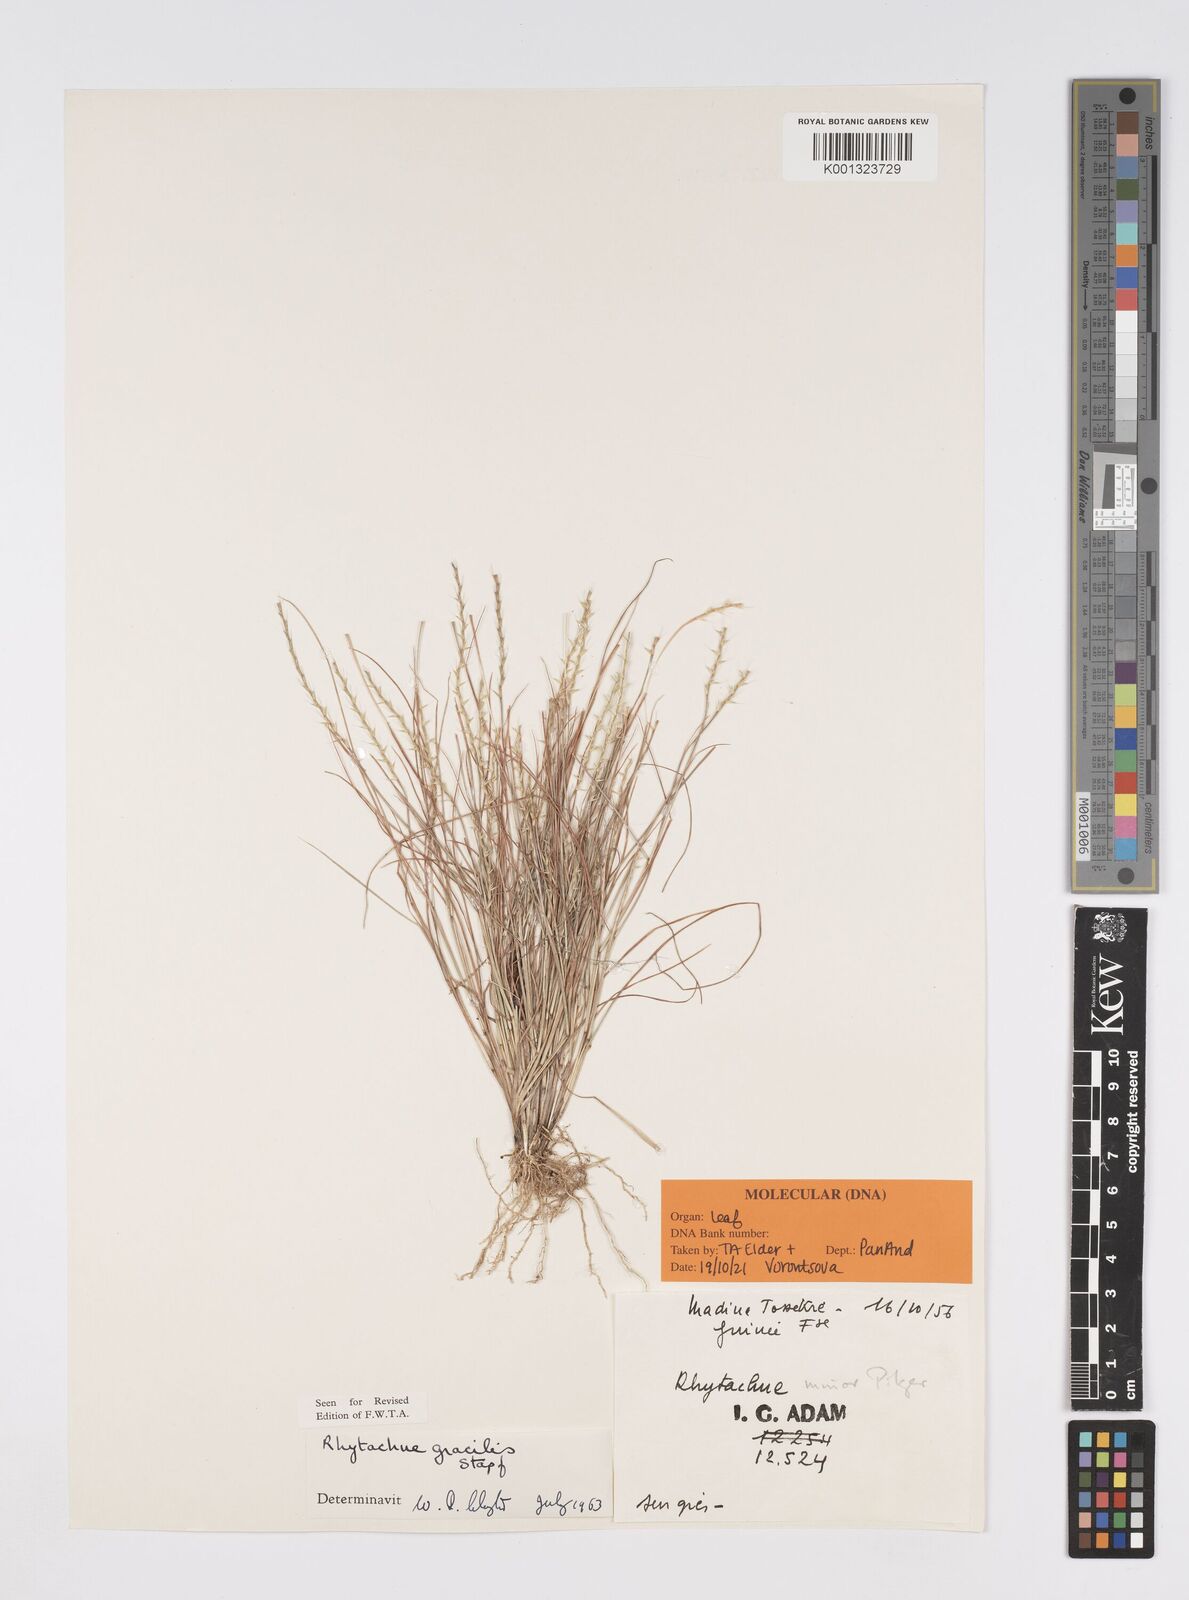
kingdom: Plantae
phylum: Tracheophyta
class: Liliopsida
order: Poales
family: Poaceae
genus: Rhytachne
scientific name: Rhytachne gracilis
